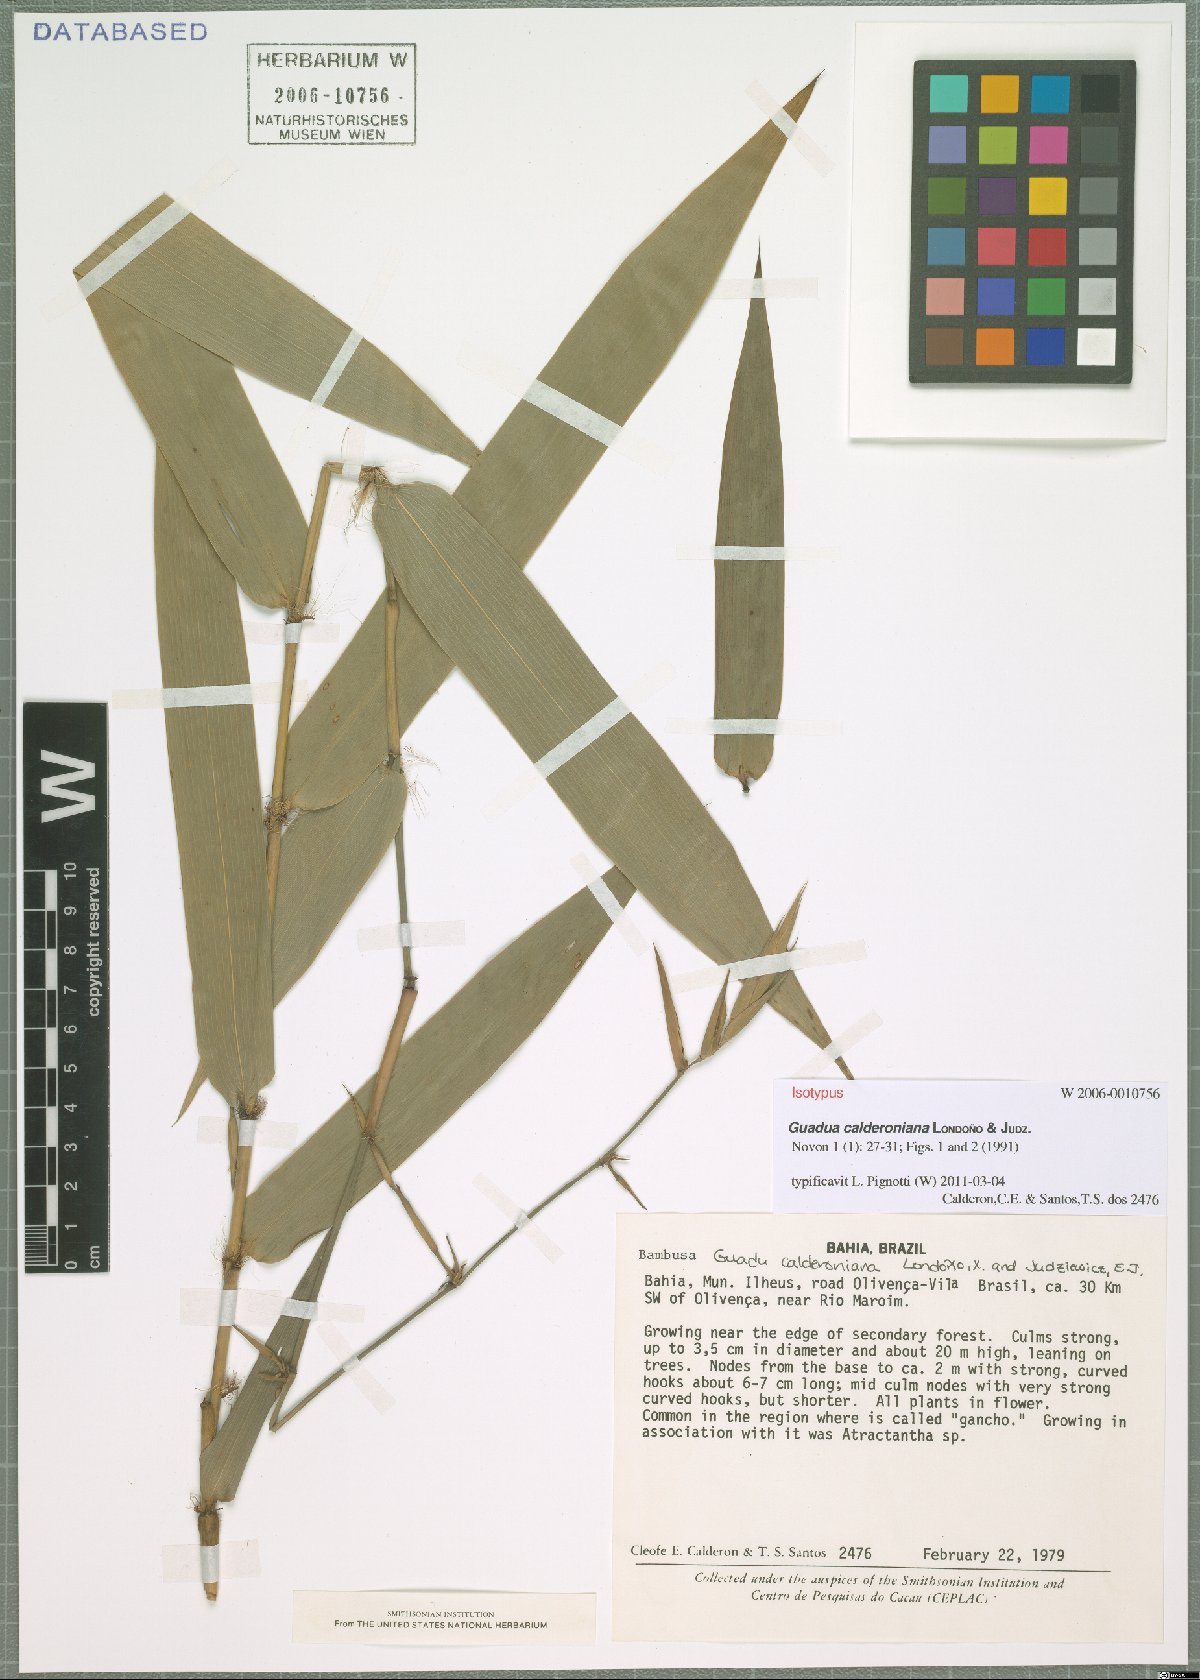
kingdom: Plantae
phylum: Tracheophyta
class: Liliopsida
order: Poales
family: Poaceae
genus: Guadua
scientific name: Guadua calderoniana
